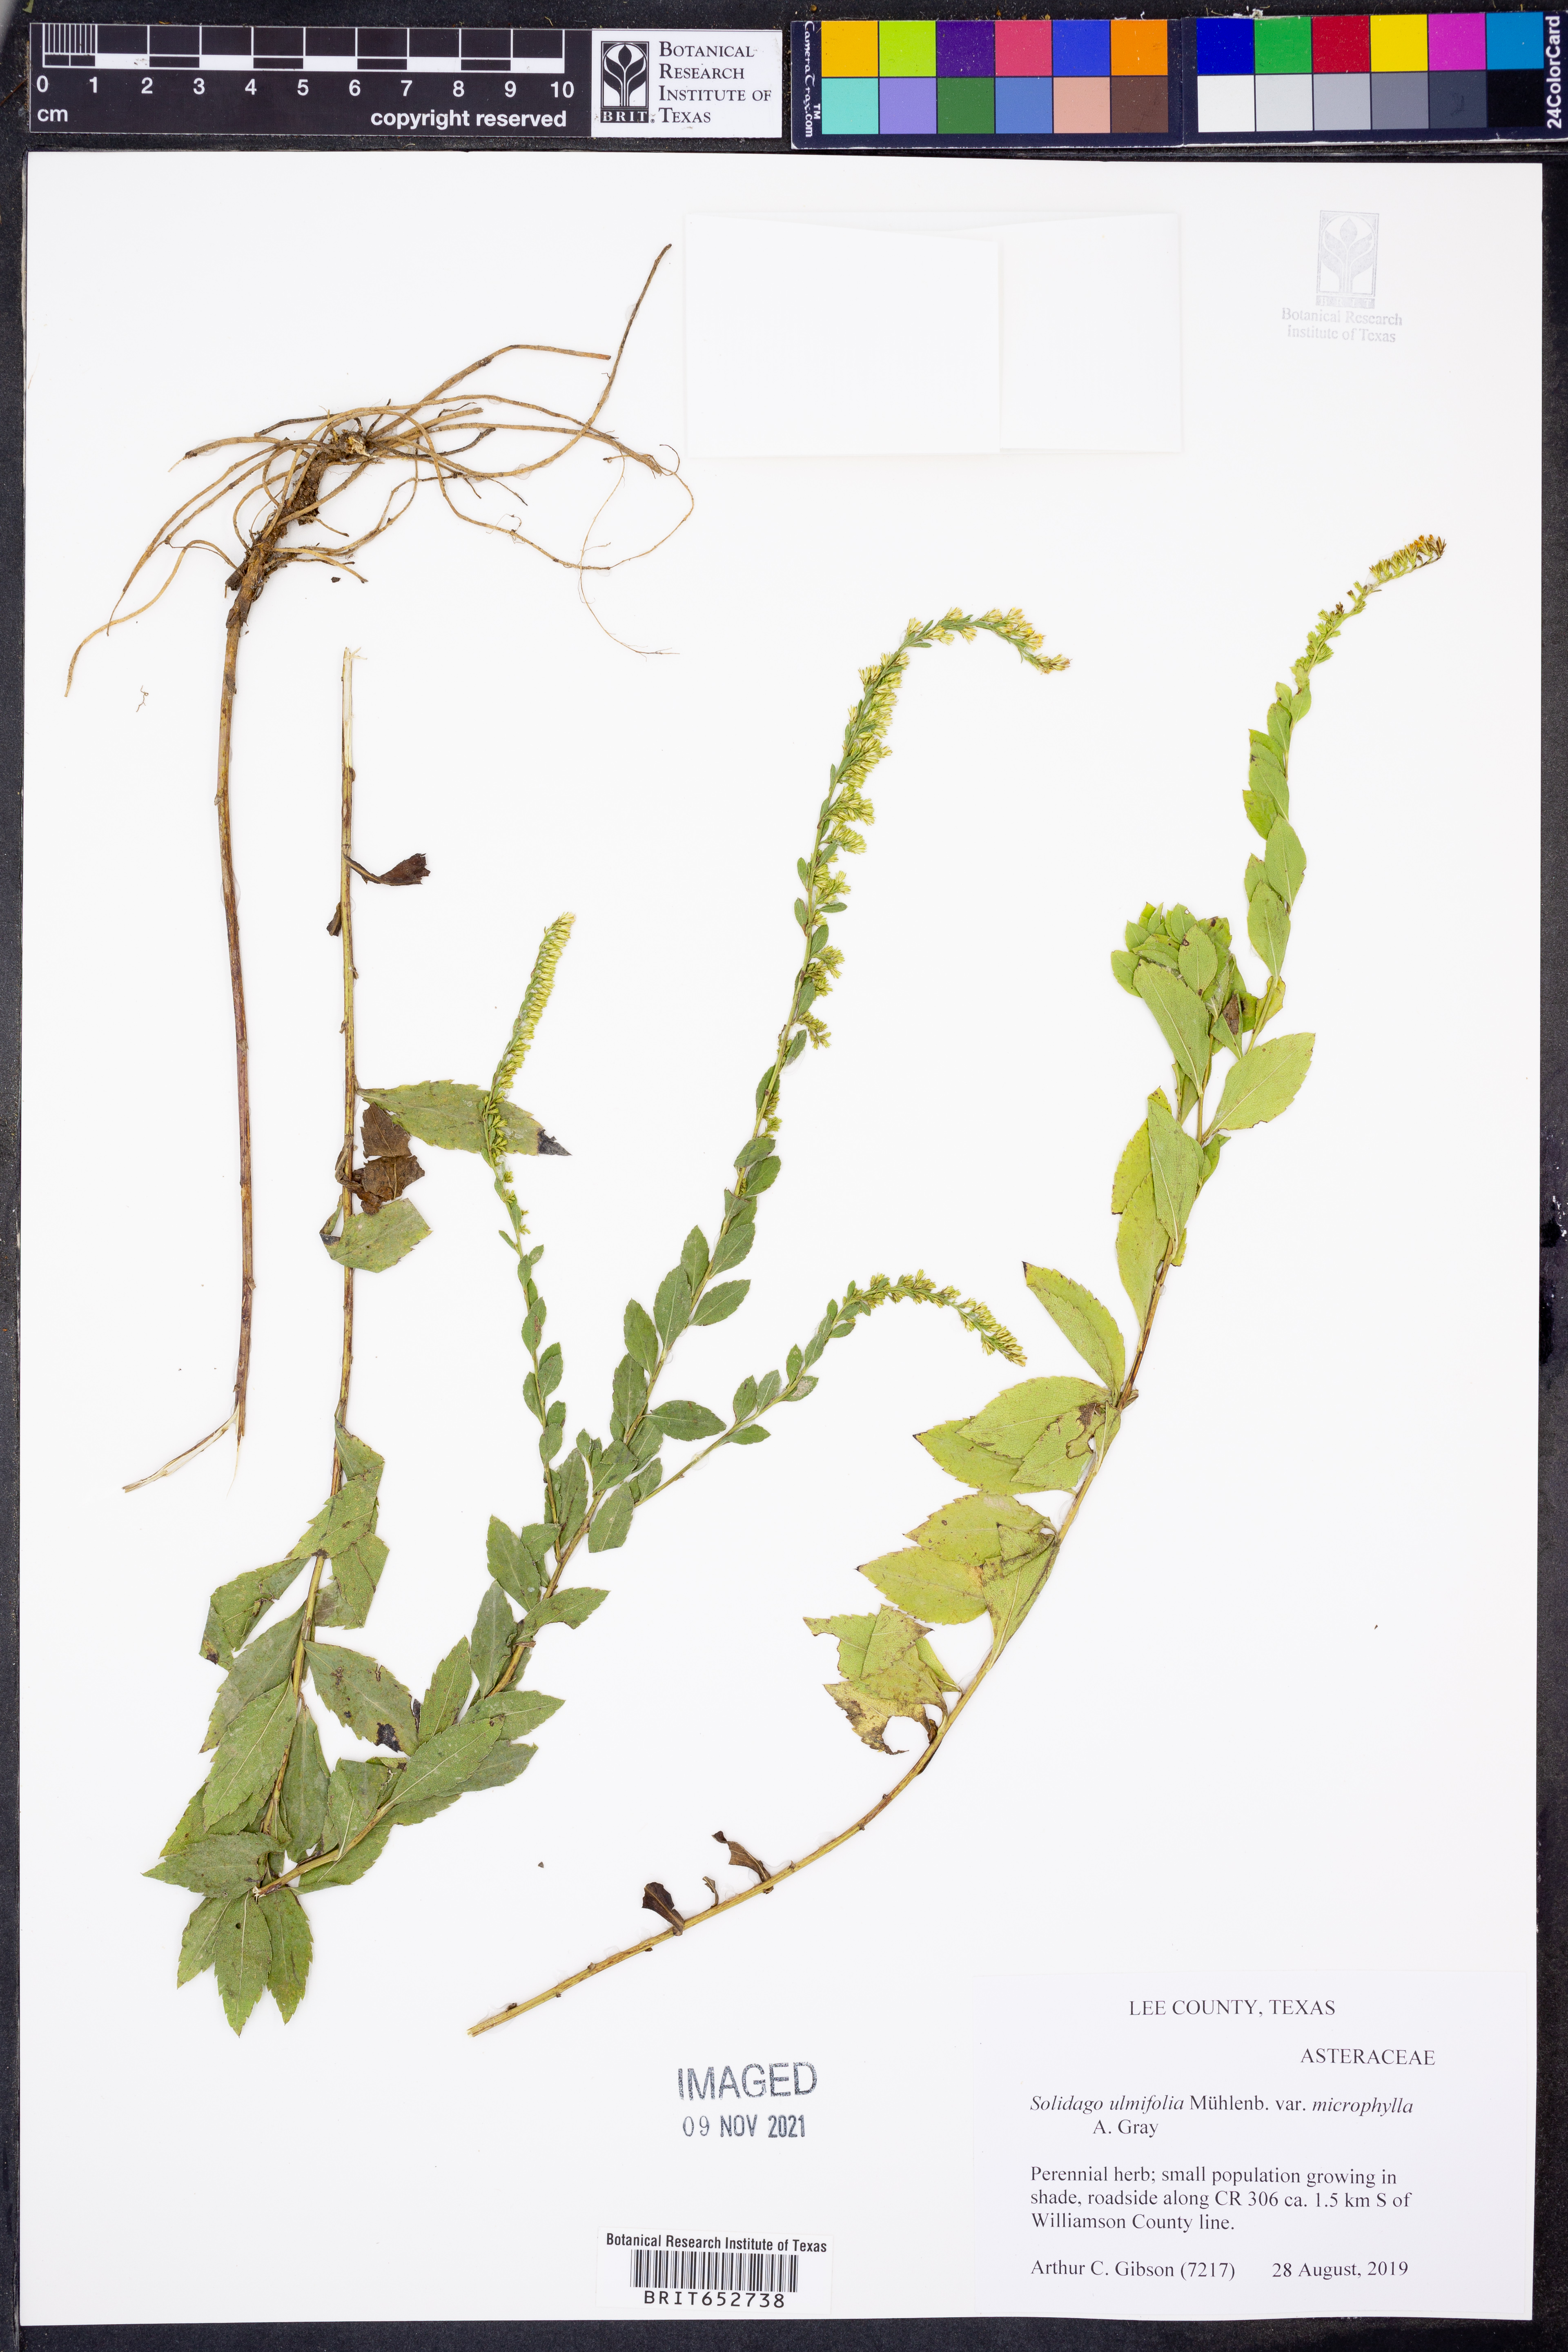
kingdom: Plantae
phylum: Tracheophyta
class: Magnoliopsida
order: Asterales
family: Asteraceae
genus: Solidago
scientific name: Solidago delicatula
